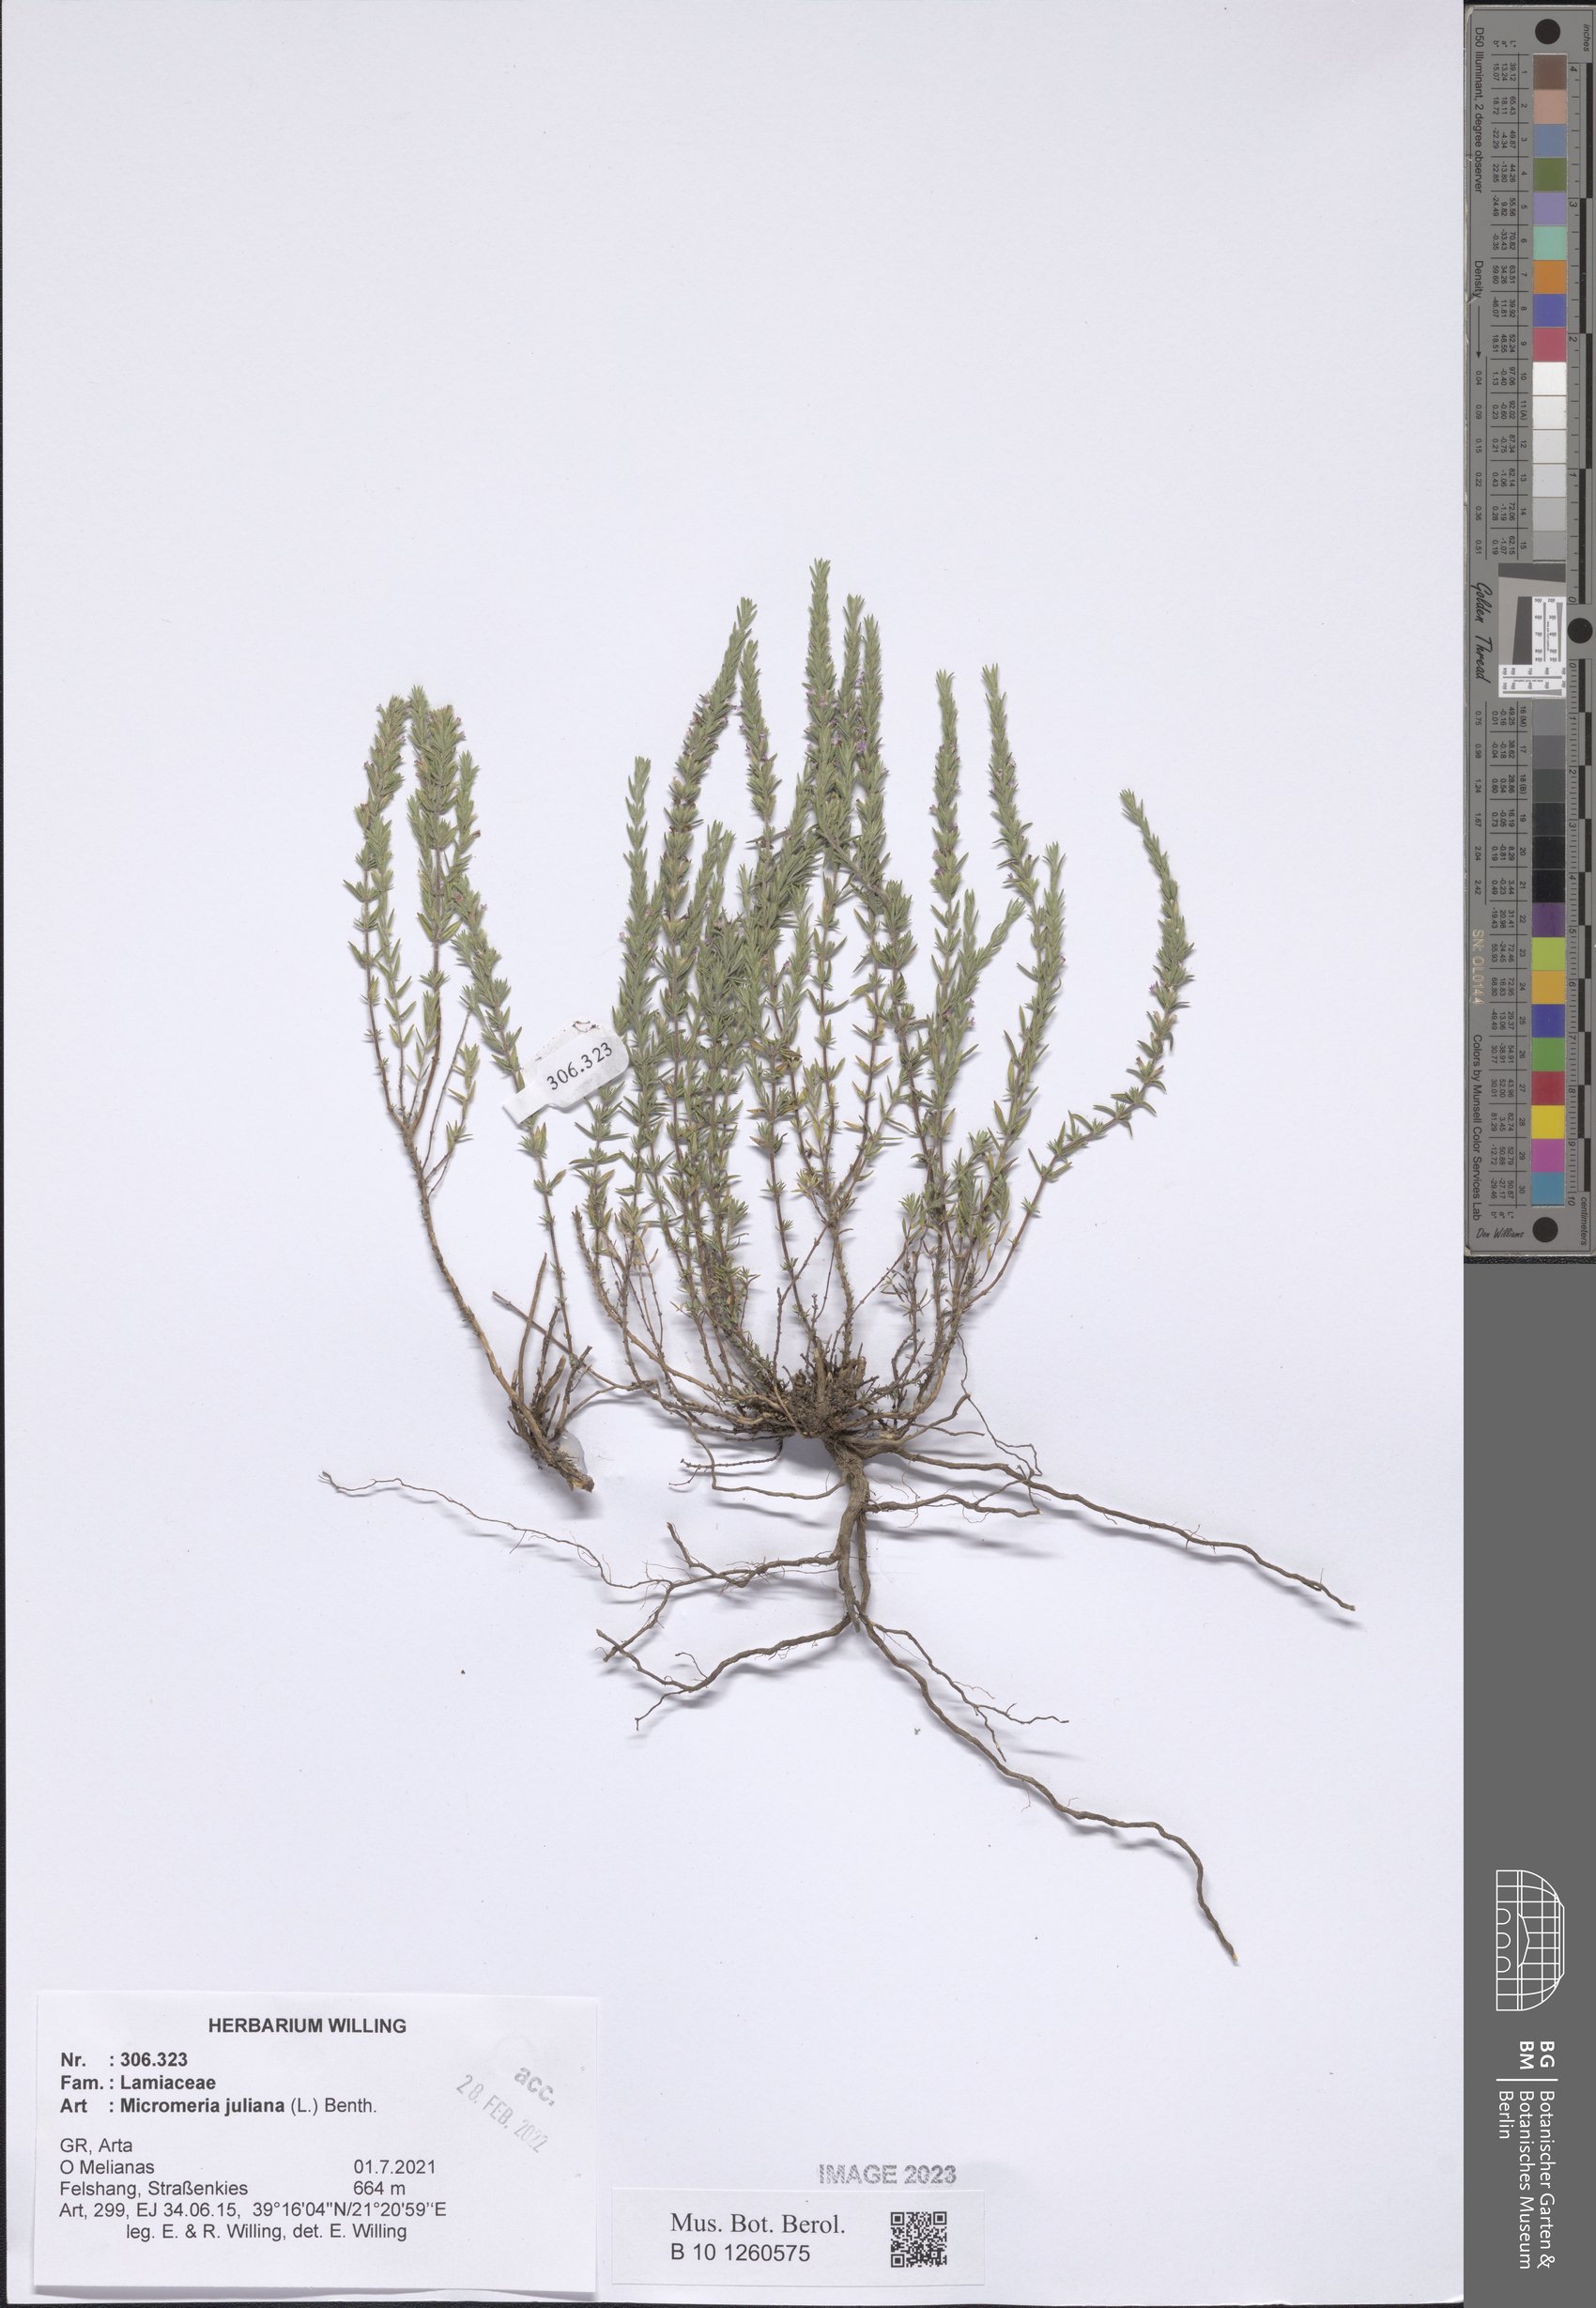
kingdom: Plantae
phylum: Tracheophyta
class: Magnoliopsida
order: Lamiales
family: Lamiaceae
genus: Micromeria
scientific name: Micromeria juliana
